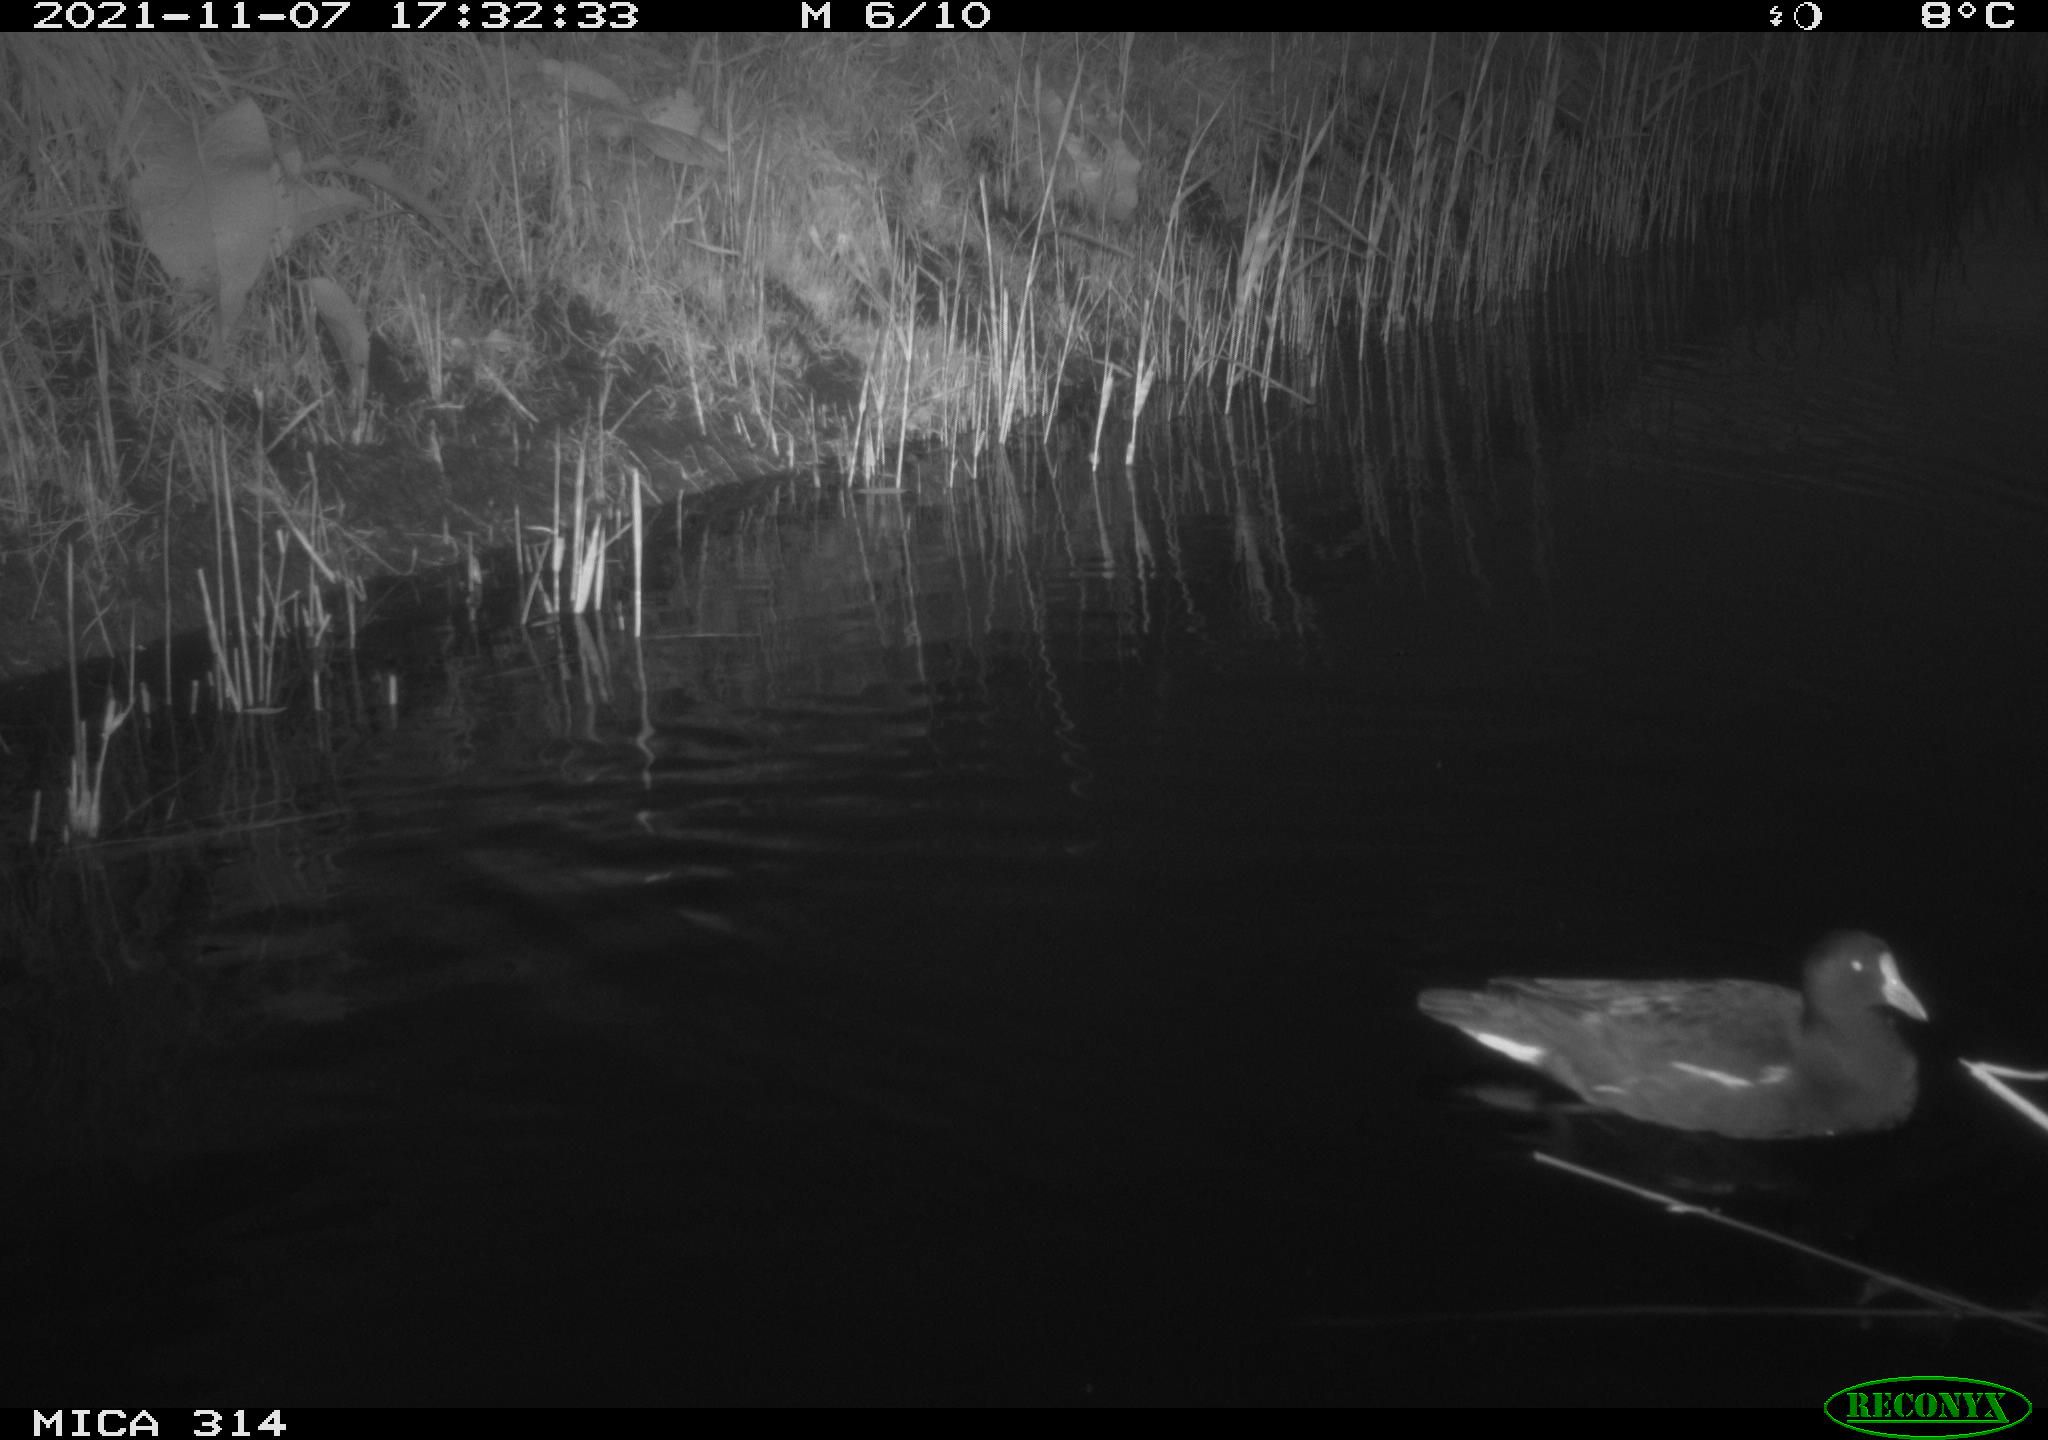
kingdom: Animalia
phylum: Chordata
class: Aves
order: Gruiformes
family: Rallidae
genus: Gallinula
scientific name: Gallinula chloropus
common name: Common moorhen
